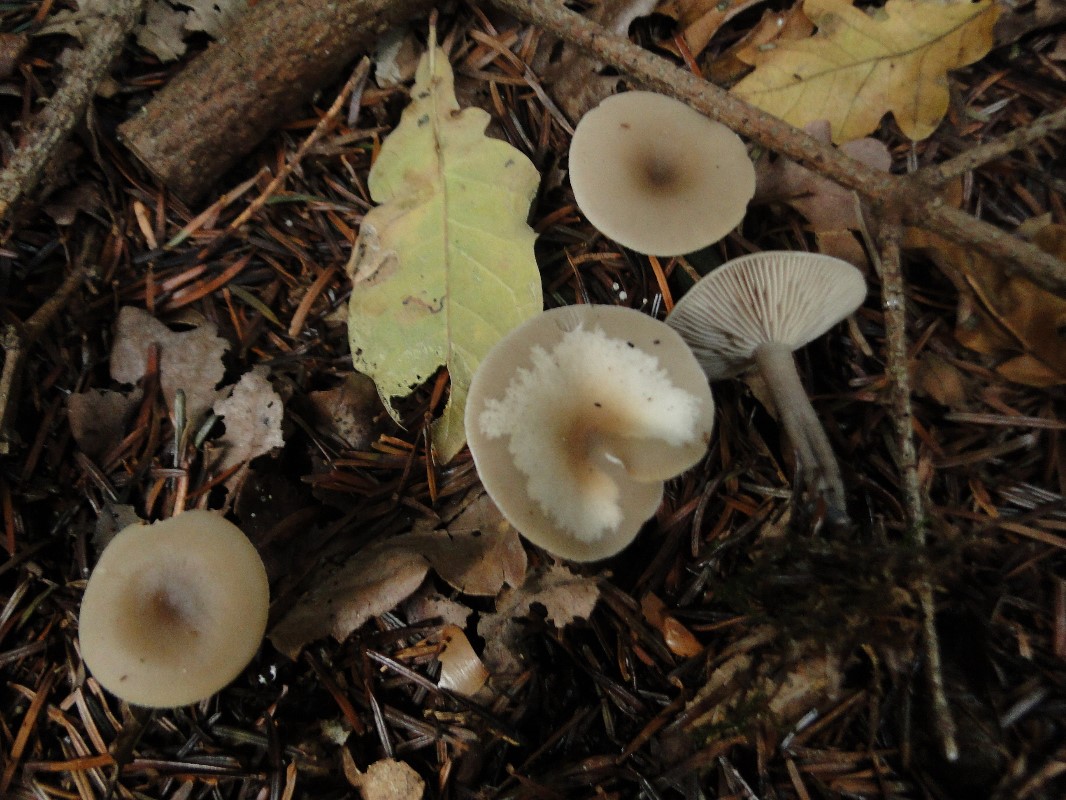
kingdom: Fungi
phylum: Basidiomycota
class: Agaricomycetes
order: Agaricales
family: Tricholomataceae
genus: Clitocybe
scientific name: Clitocybe metachroa
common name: grå tragthat
